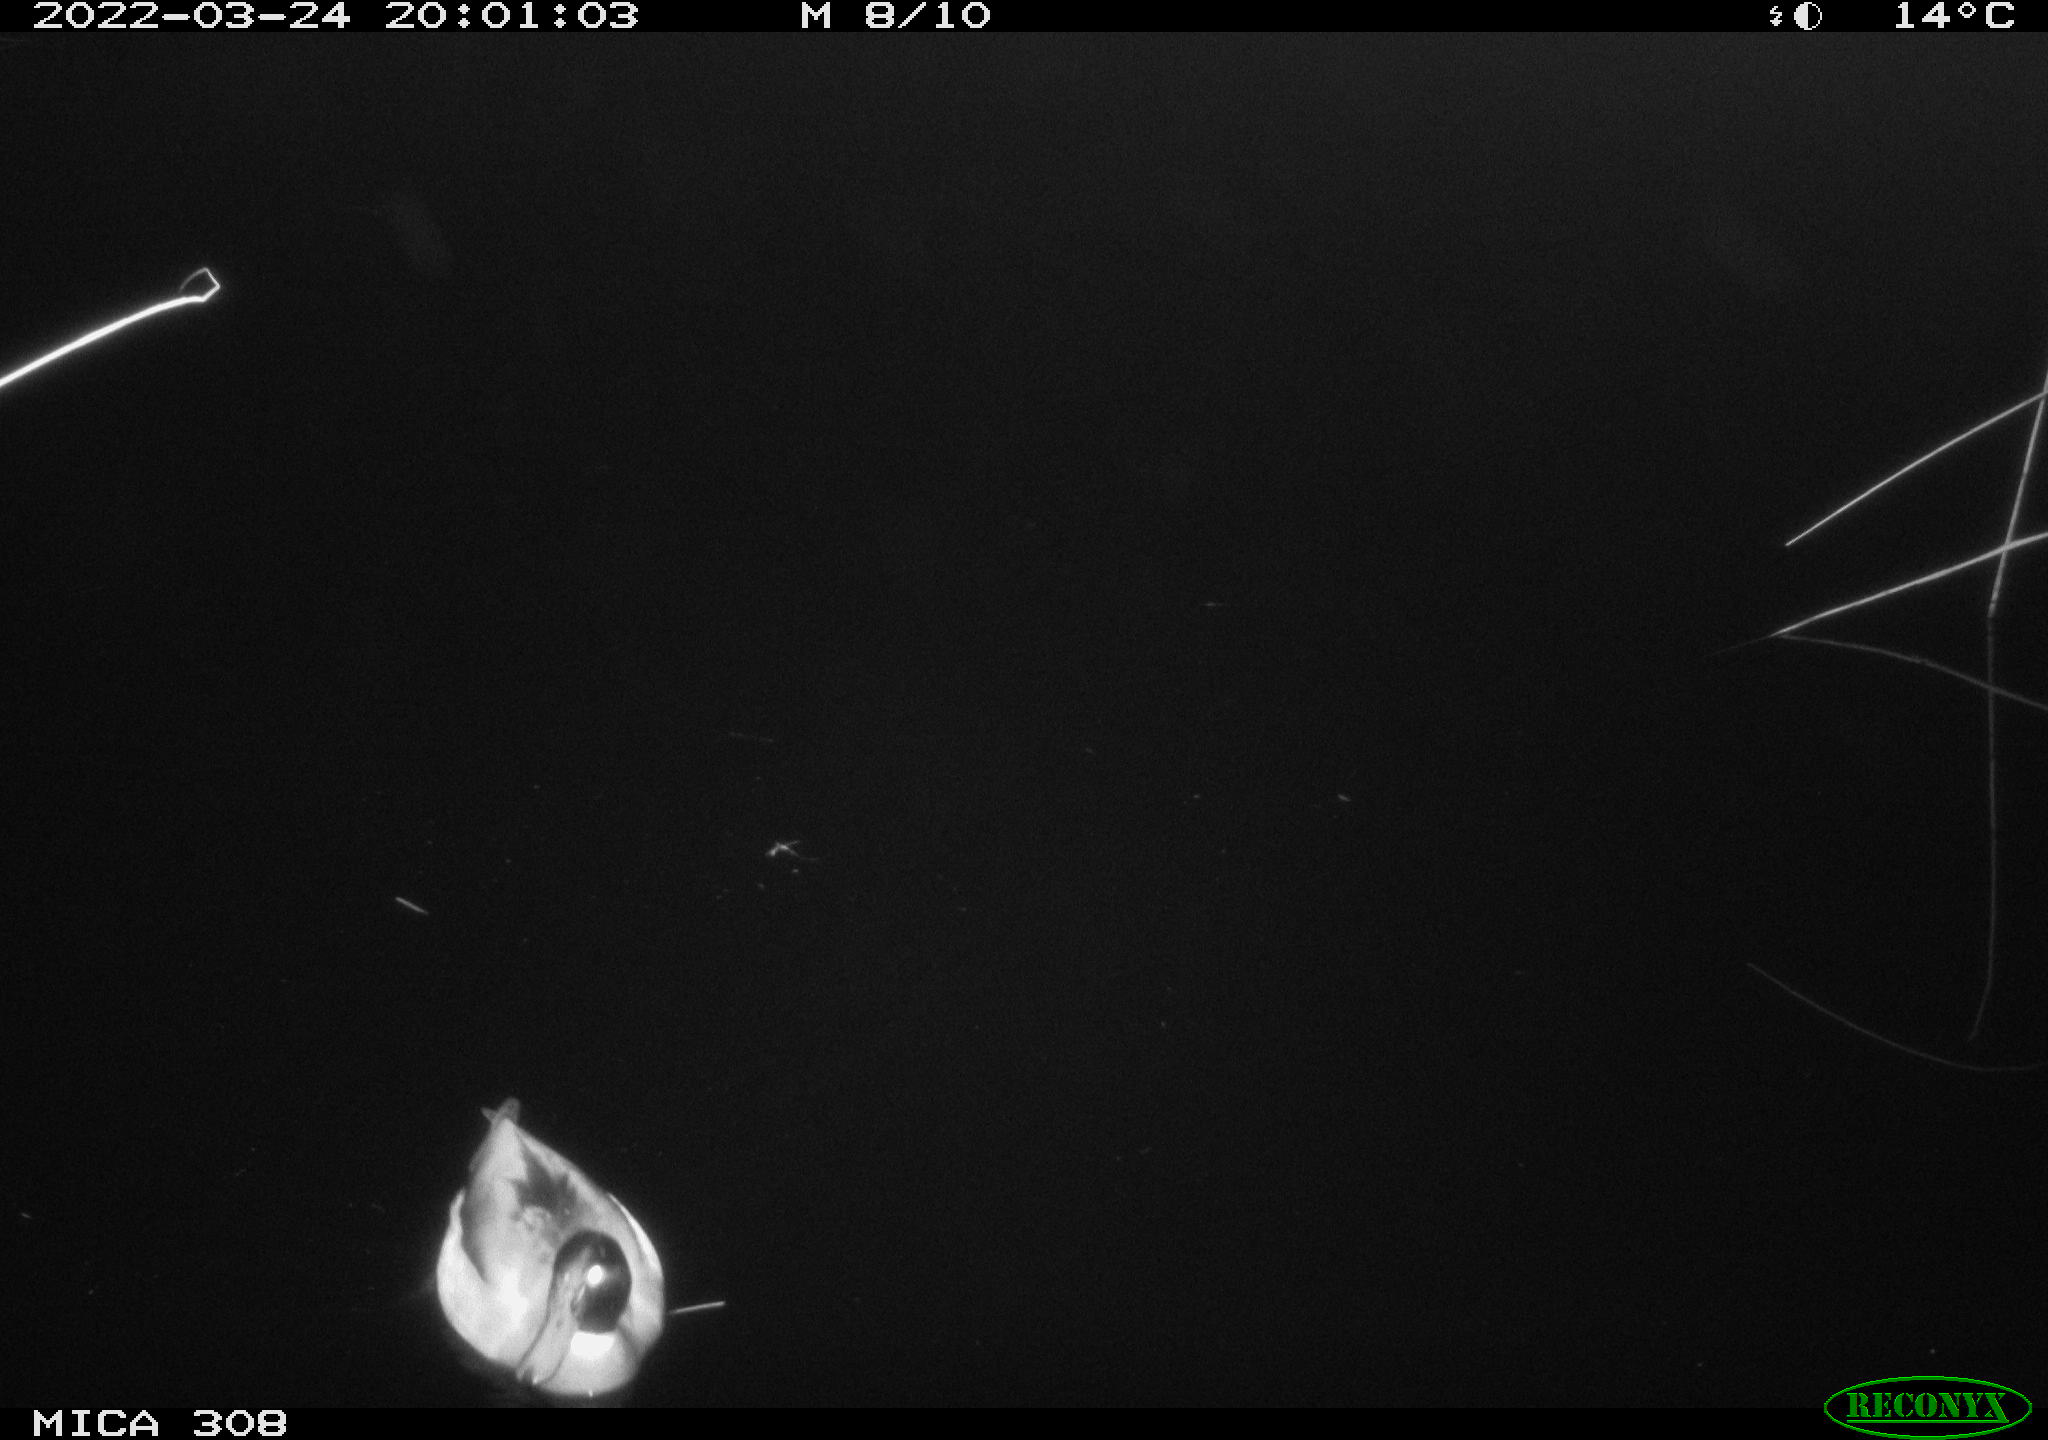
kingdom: Animalia
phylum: Chordata
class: Aves
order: Anseriformes
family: Anatidae
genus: Anas
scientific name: Anas platyrhynchos
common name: Mallard
